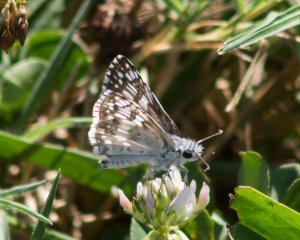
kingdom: Animalia
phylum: Arthropoda
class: Insecta
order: Lepidoptera
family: Hesperiidae
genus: Pyrgus
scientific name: Pyrgus communis
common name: Common Checkered-Skipper
